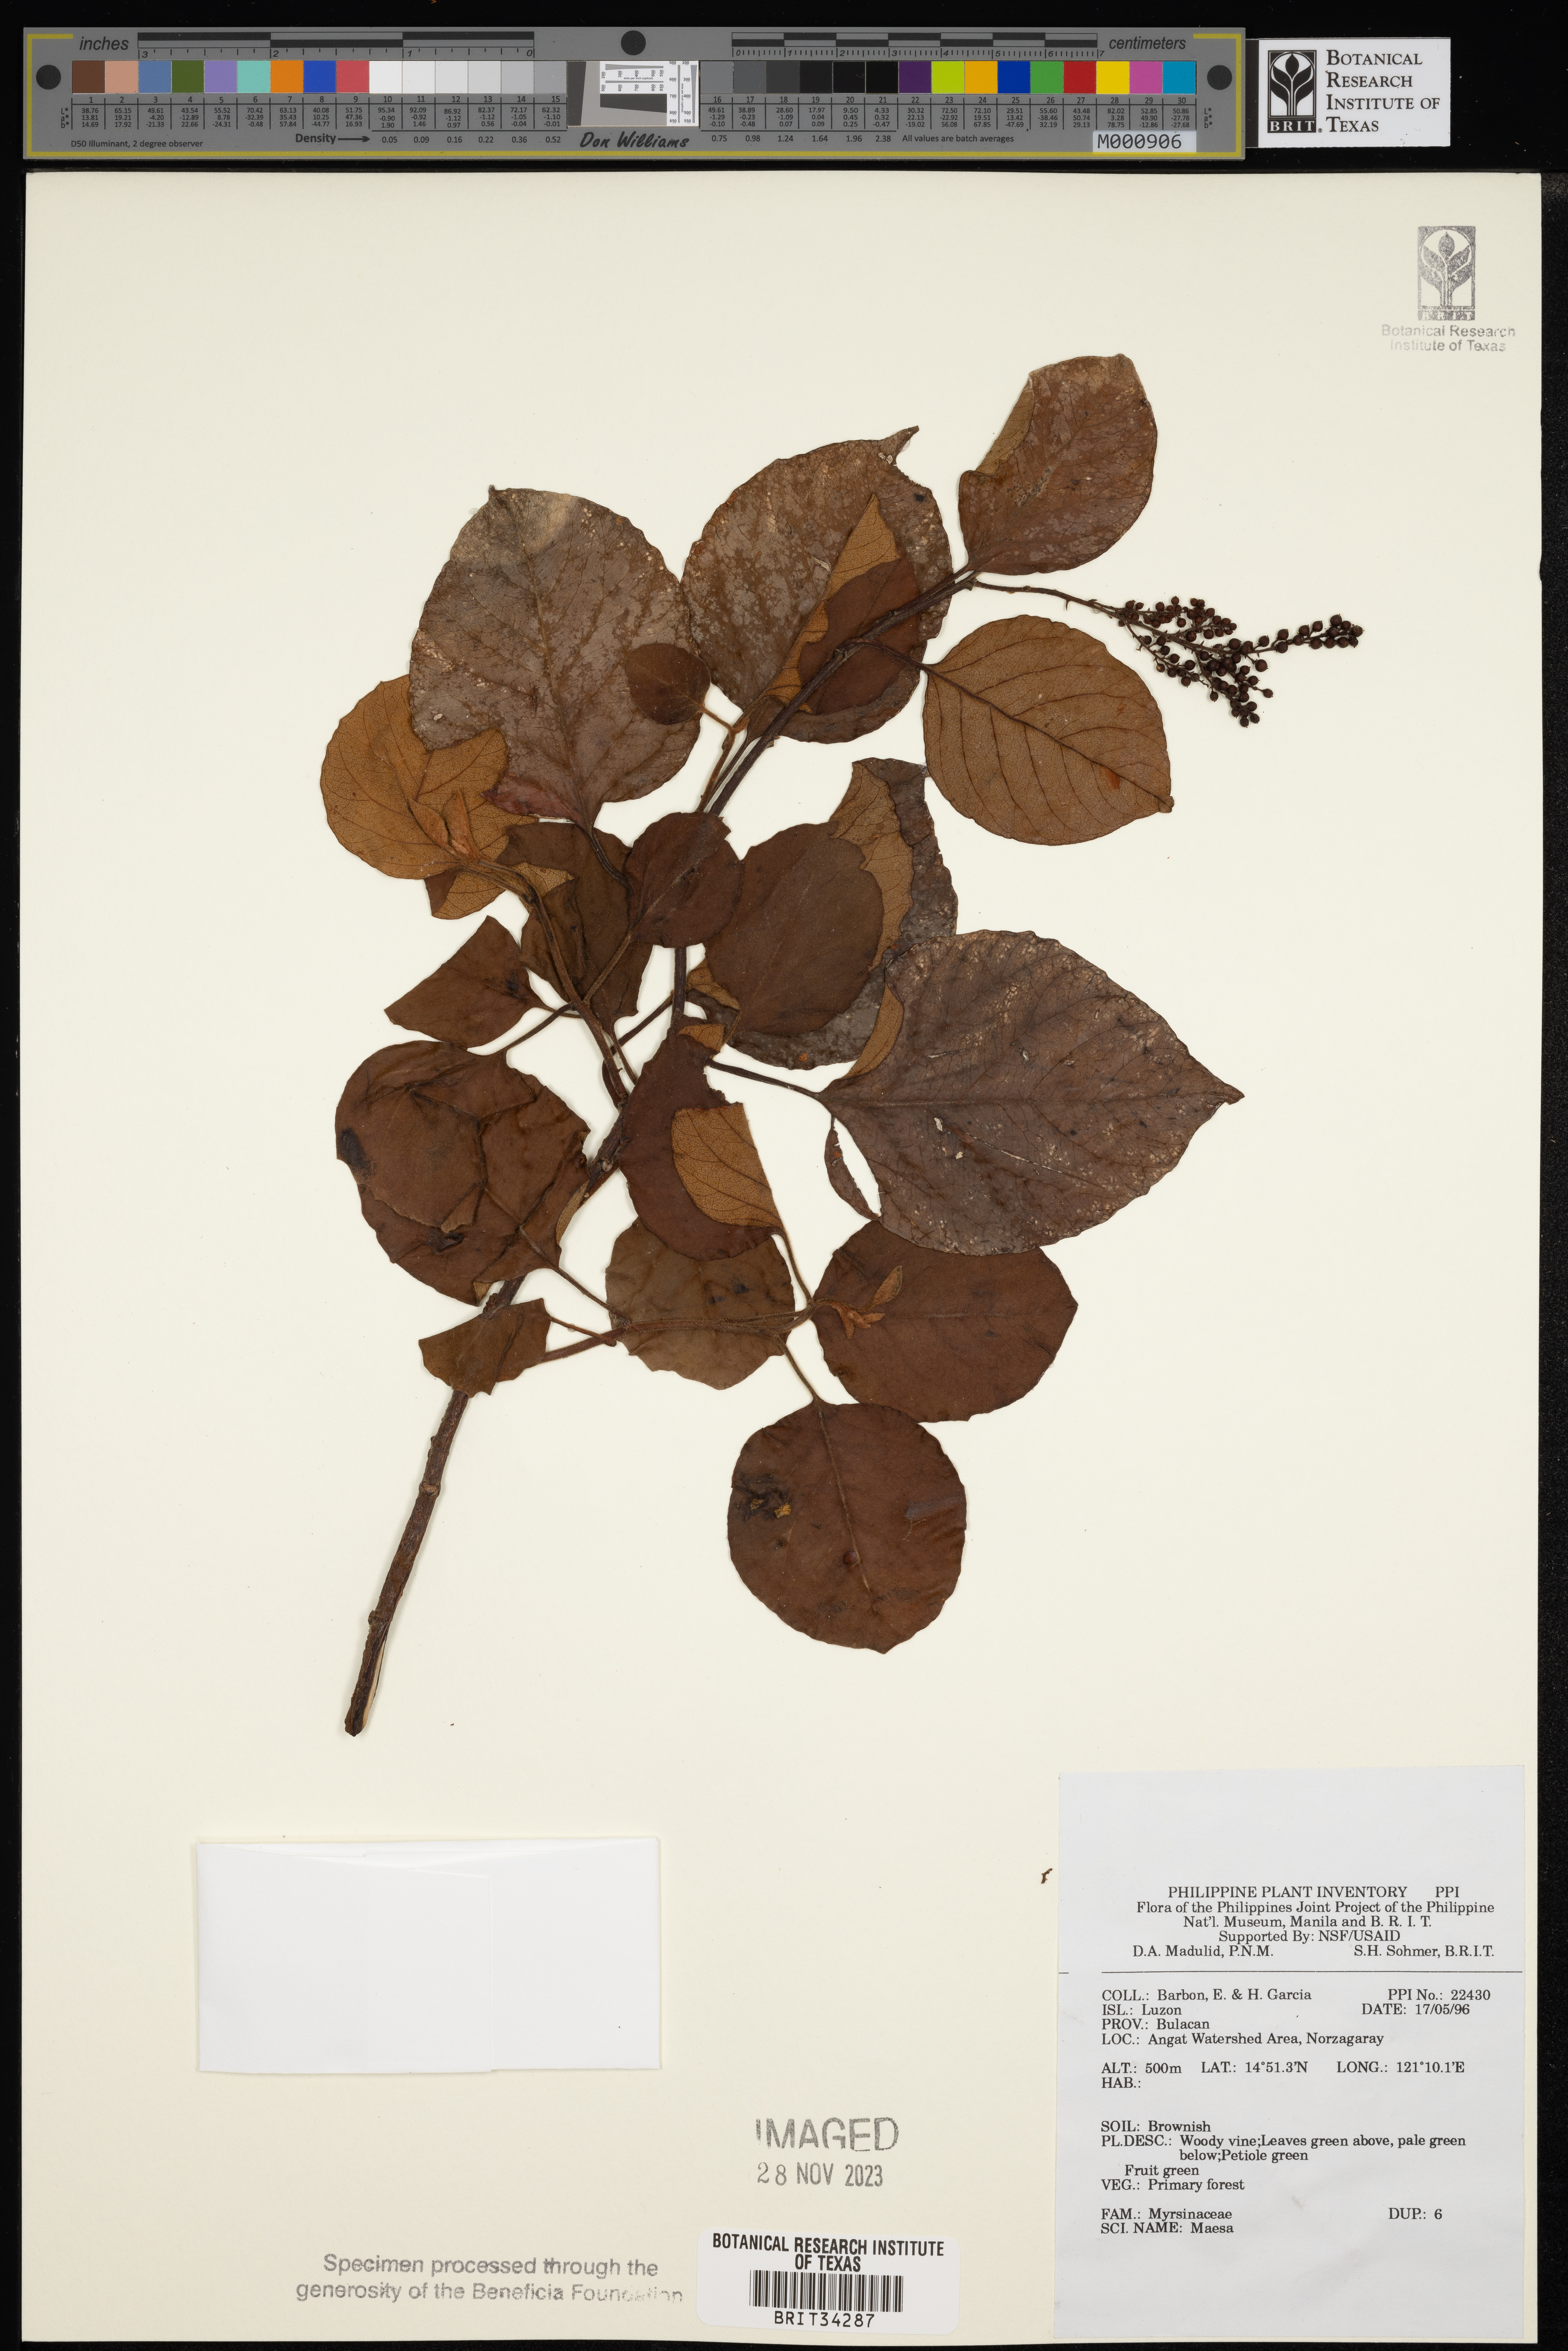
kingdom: Plantae
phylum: Tracheophyta
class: Magnoliopsida
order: Ericales
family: Primulaceae
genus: Maesa
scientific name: Maesa
